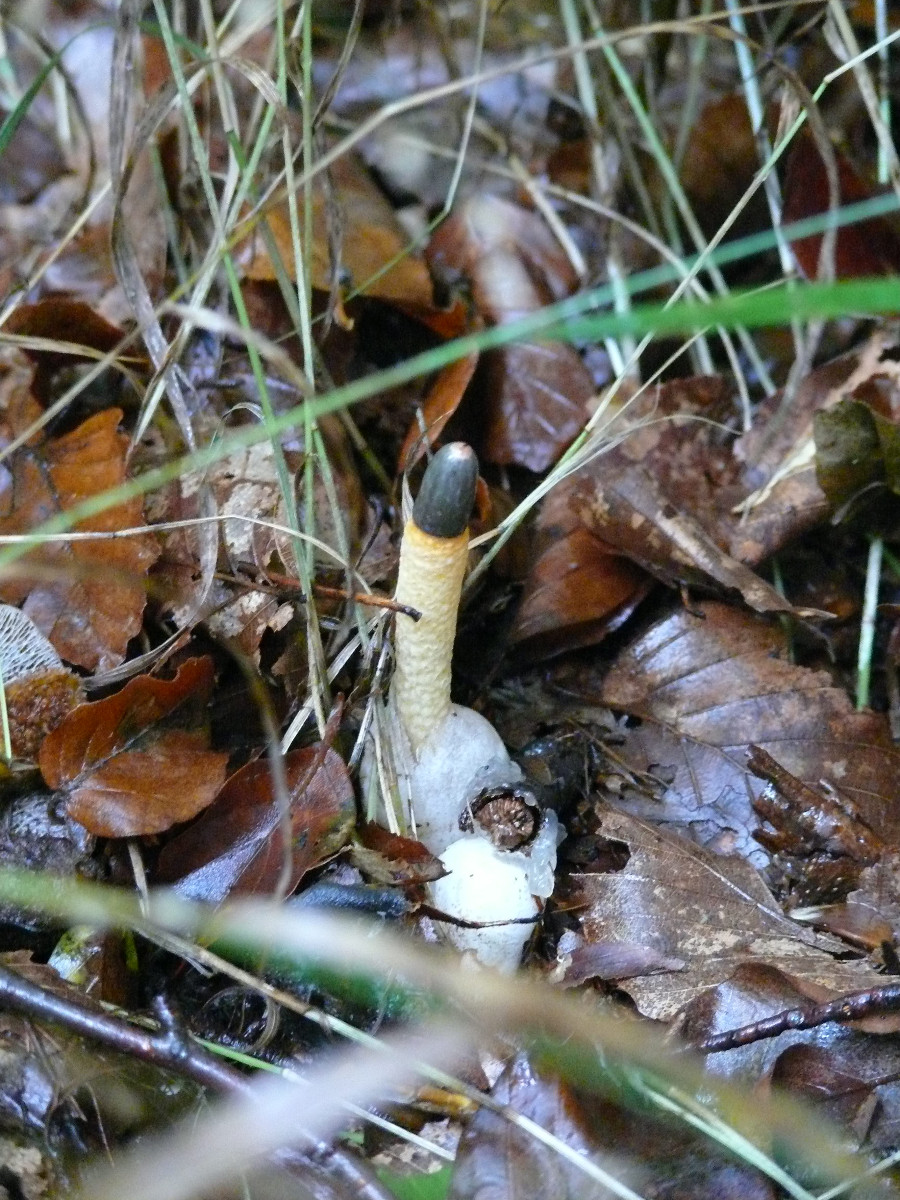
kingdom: Fungi
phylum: Basidiomycota
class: Agaricomycetes
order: Phallales
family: Phallaceae
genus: Mutinus
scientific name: Mutinus caninus
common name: hunde-stinksvamp
